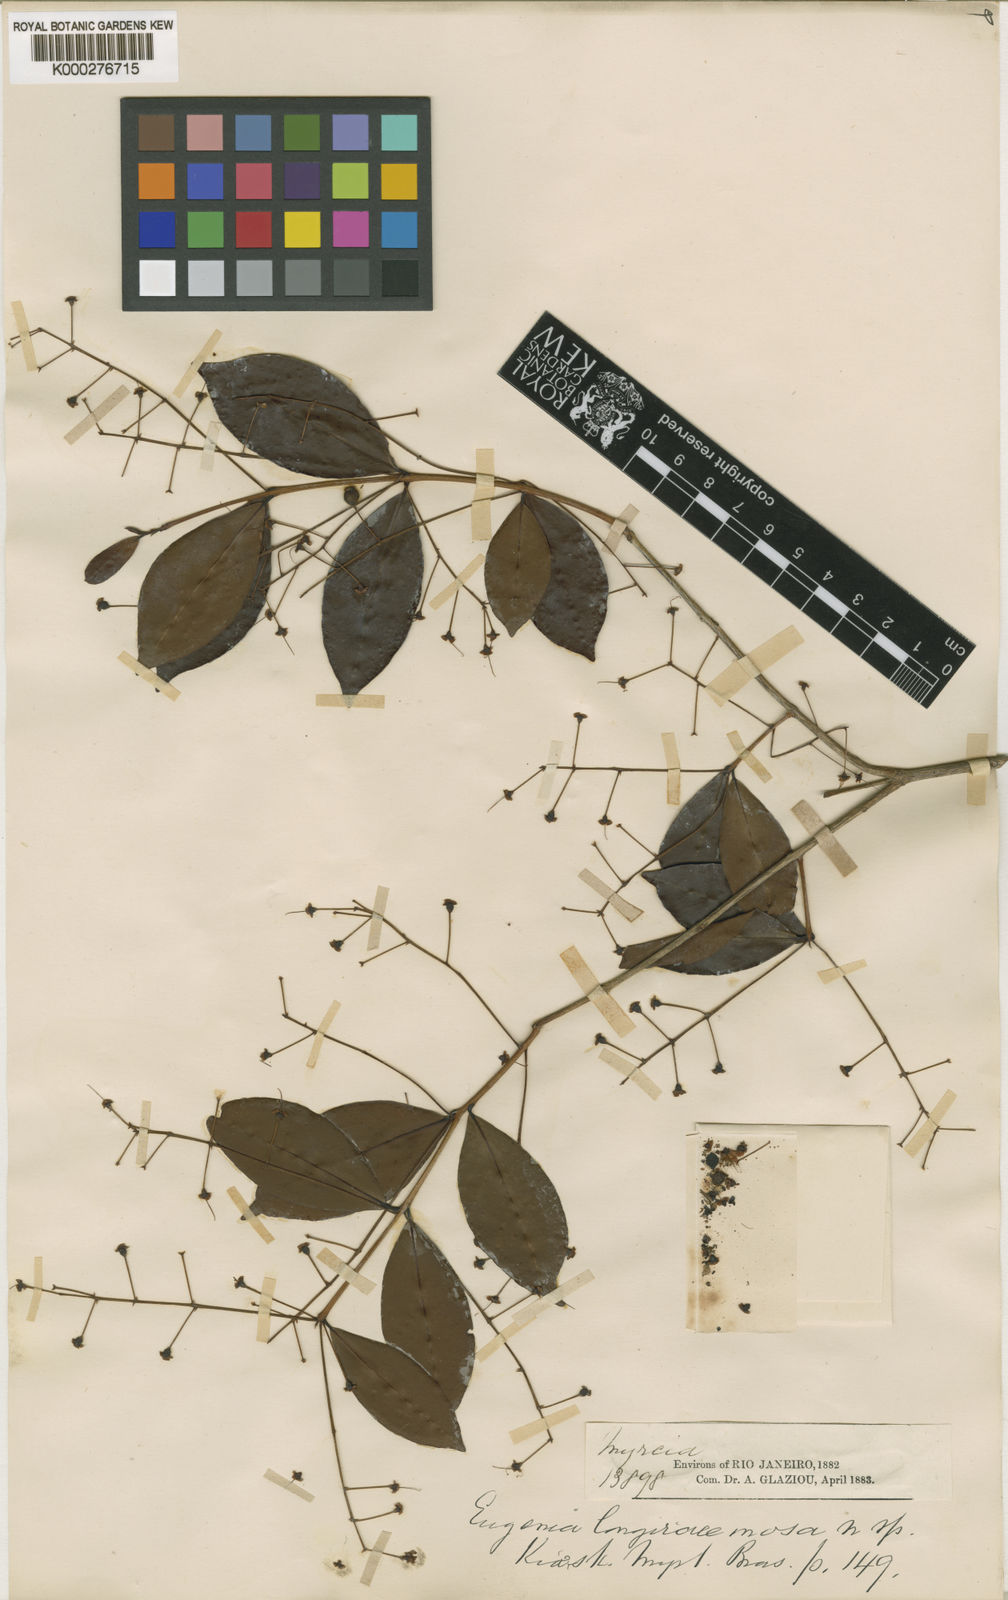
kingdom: Plantae
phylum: Tracheophyta
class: Magnoliopsida
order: Myrtales
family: Myrtaceae
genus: Eugenia
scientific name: Eugenia longiracemosa
